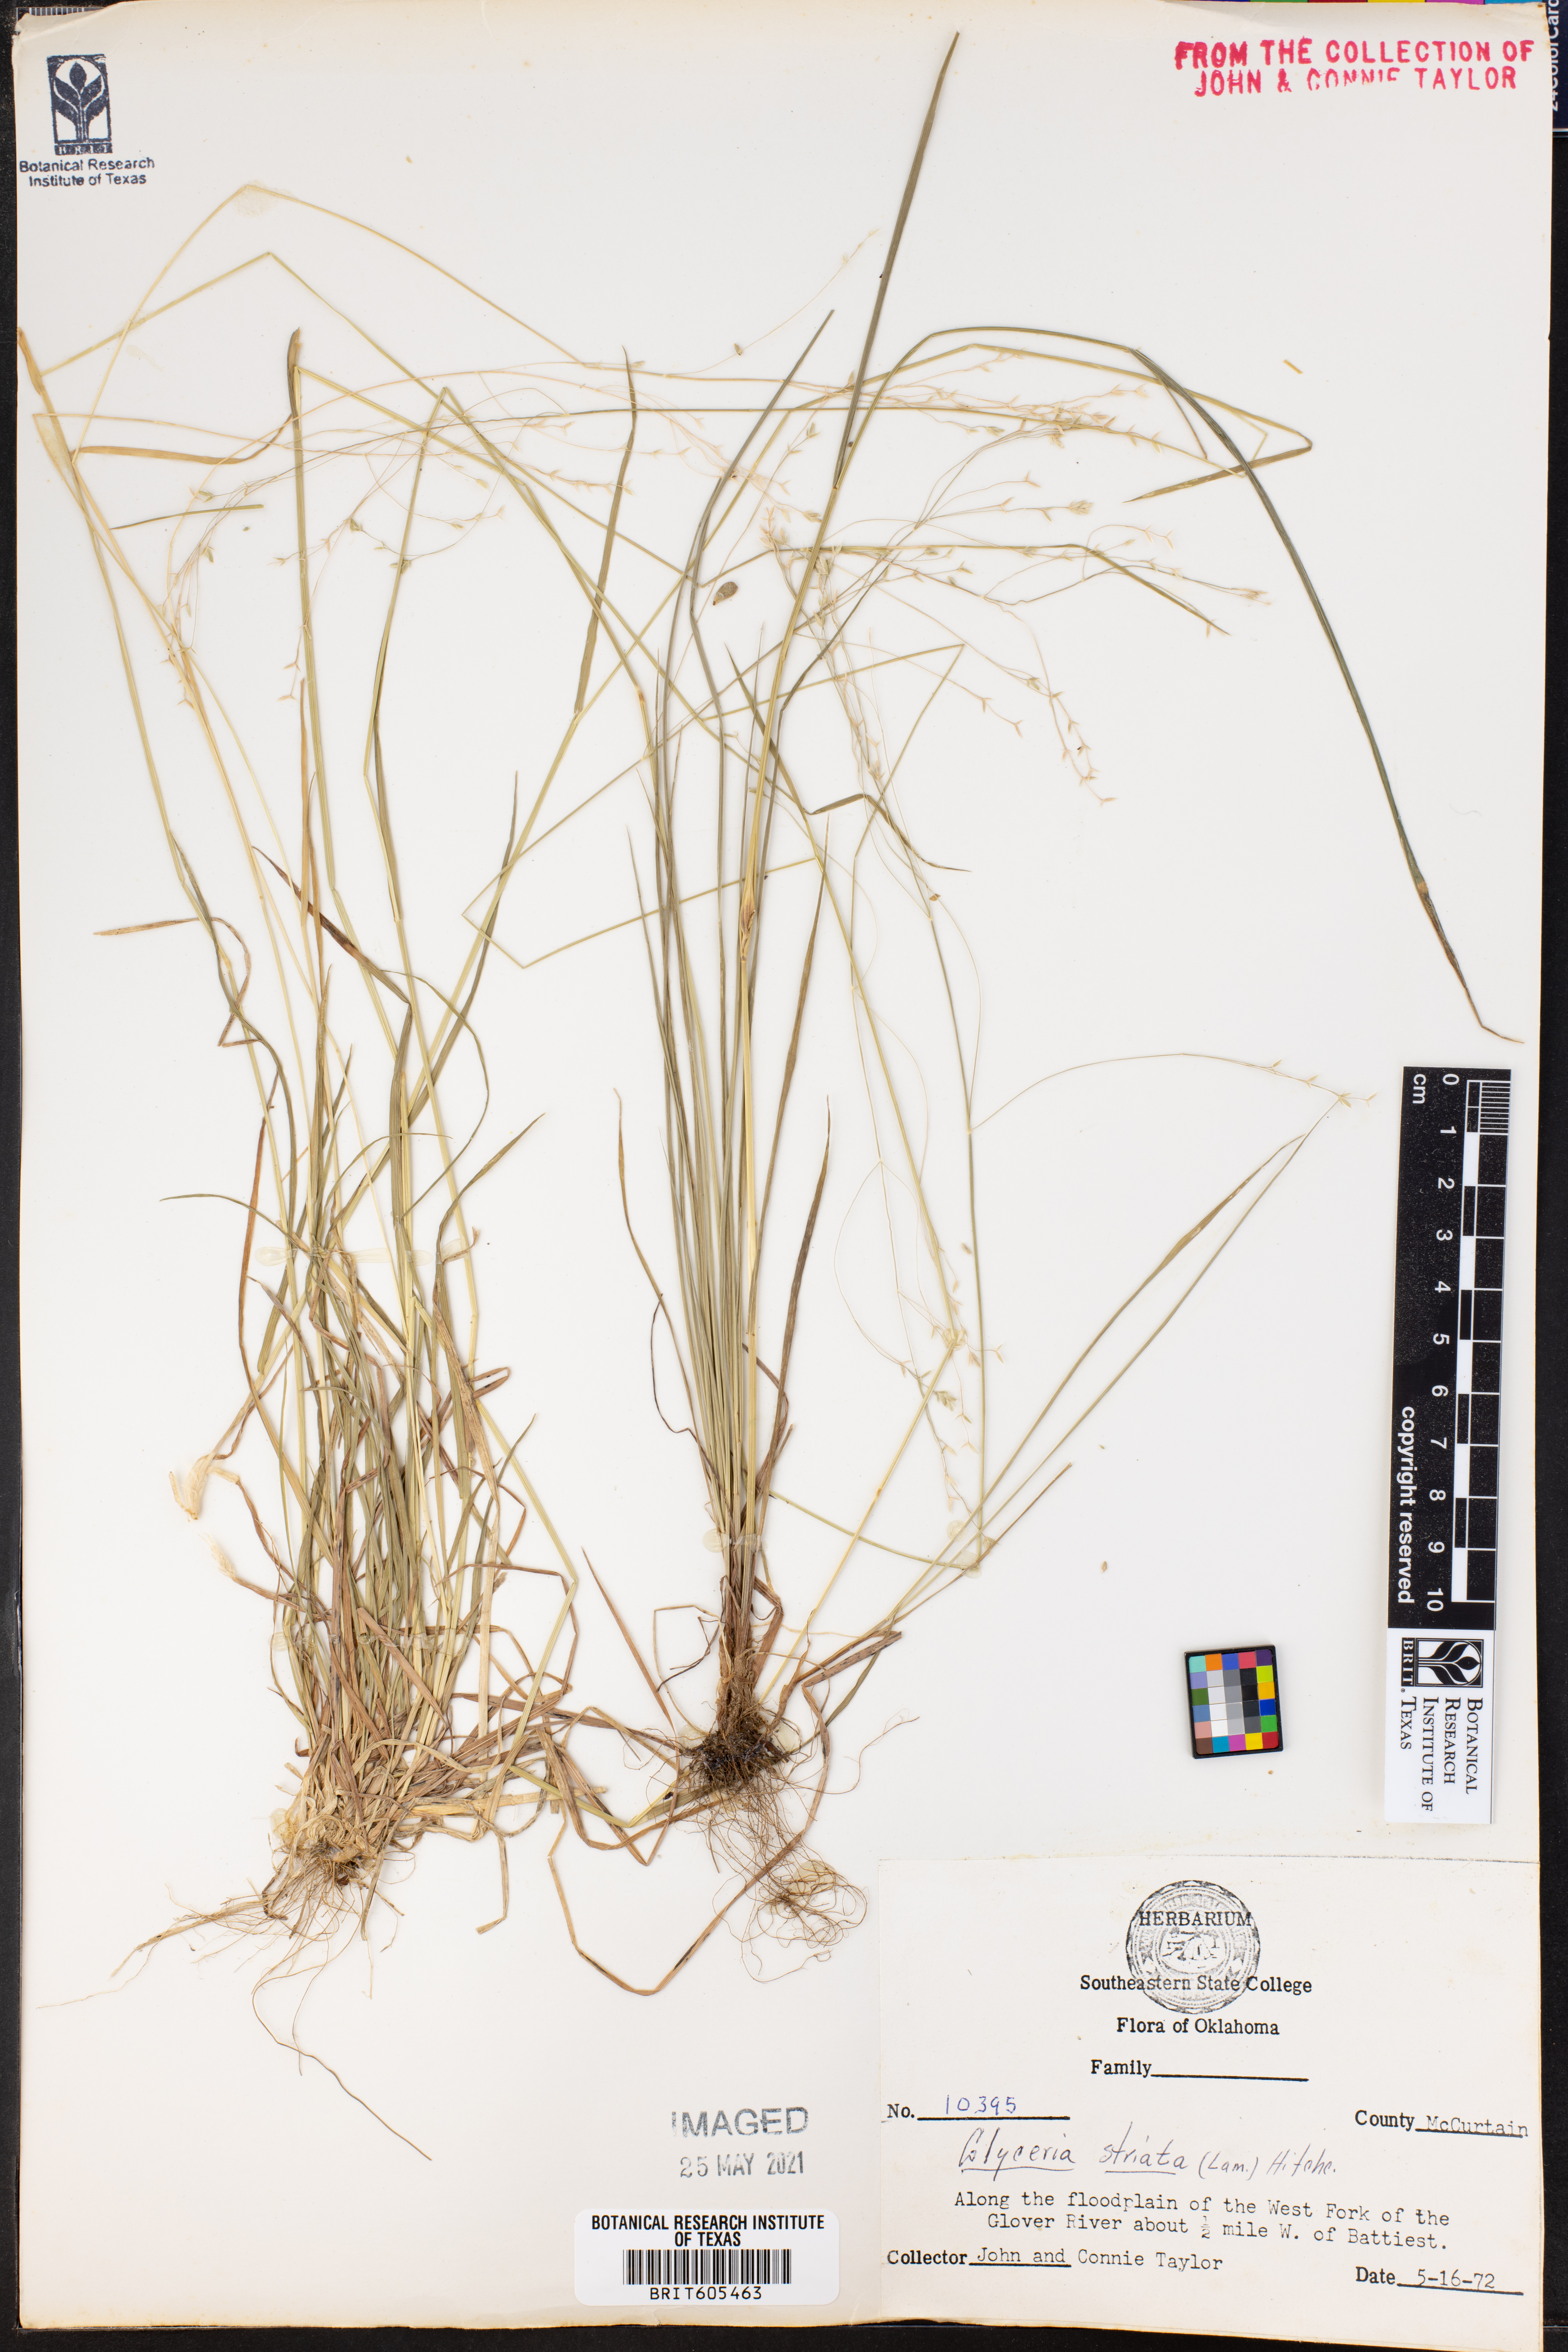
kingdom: Plantae
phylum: Tracheophyta
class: Liliopsida
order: Poales
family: Poaceae
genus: Glyceria
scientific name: Glyceria striata
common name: Fowl manna grass
